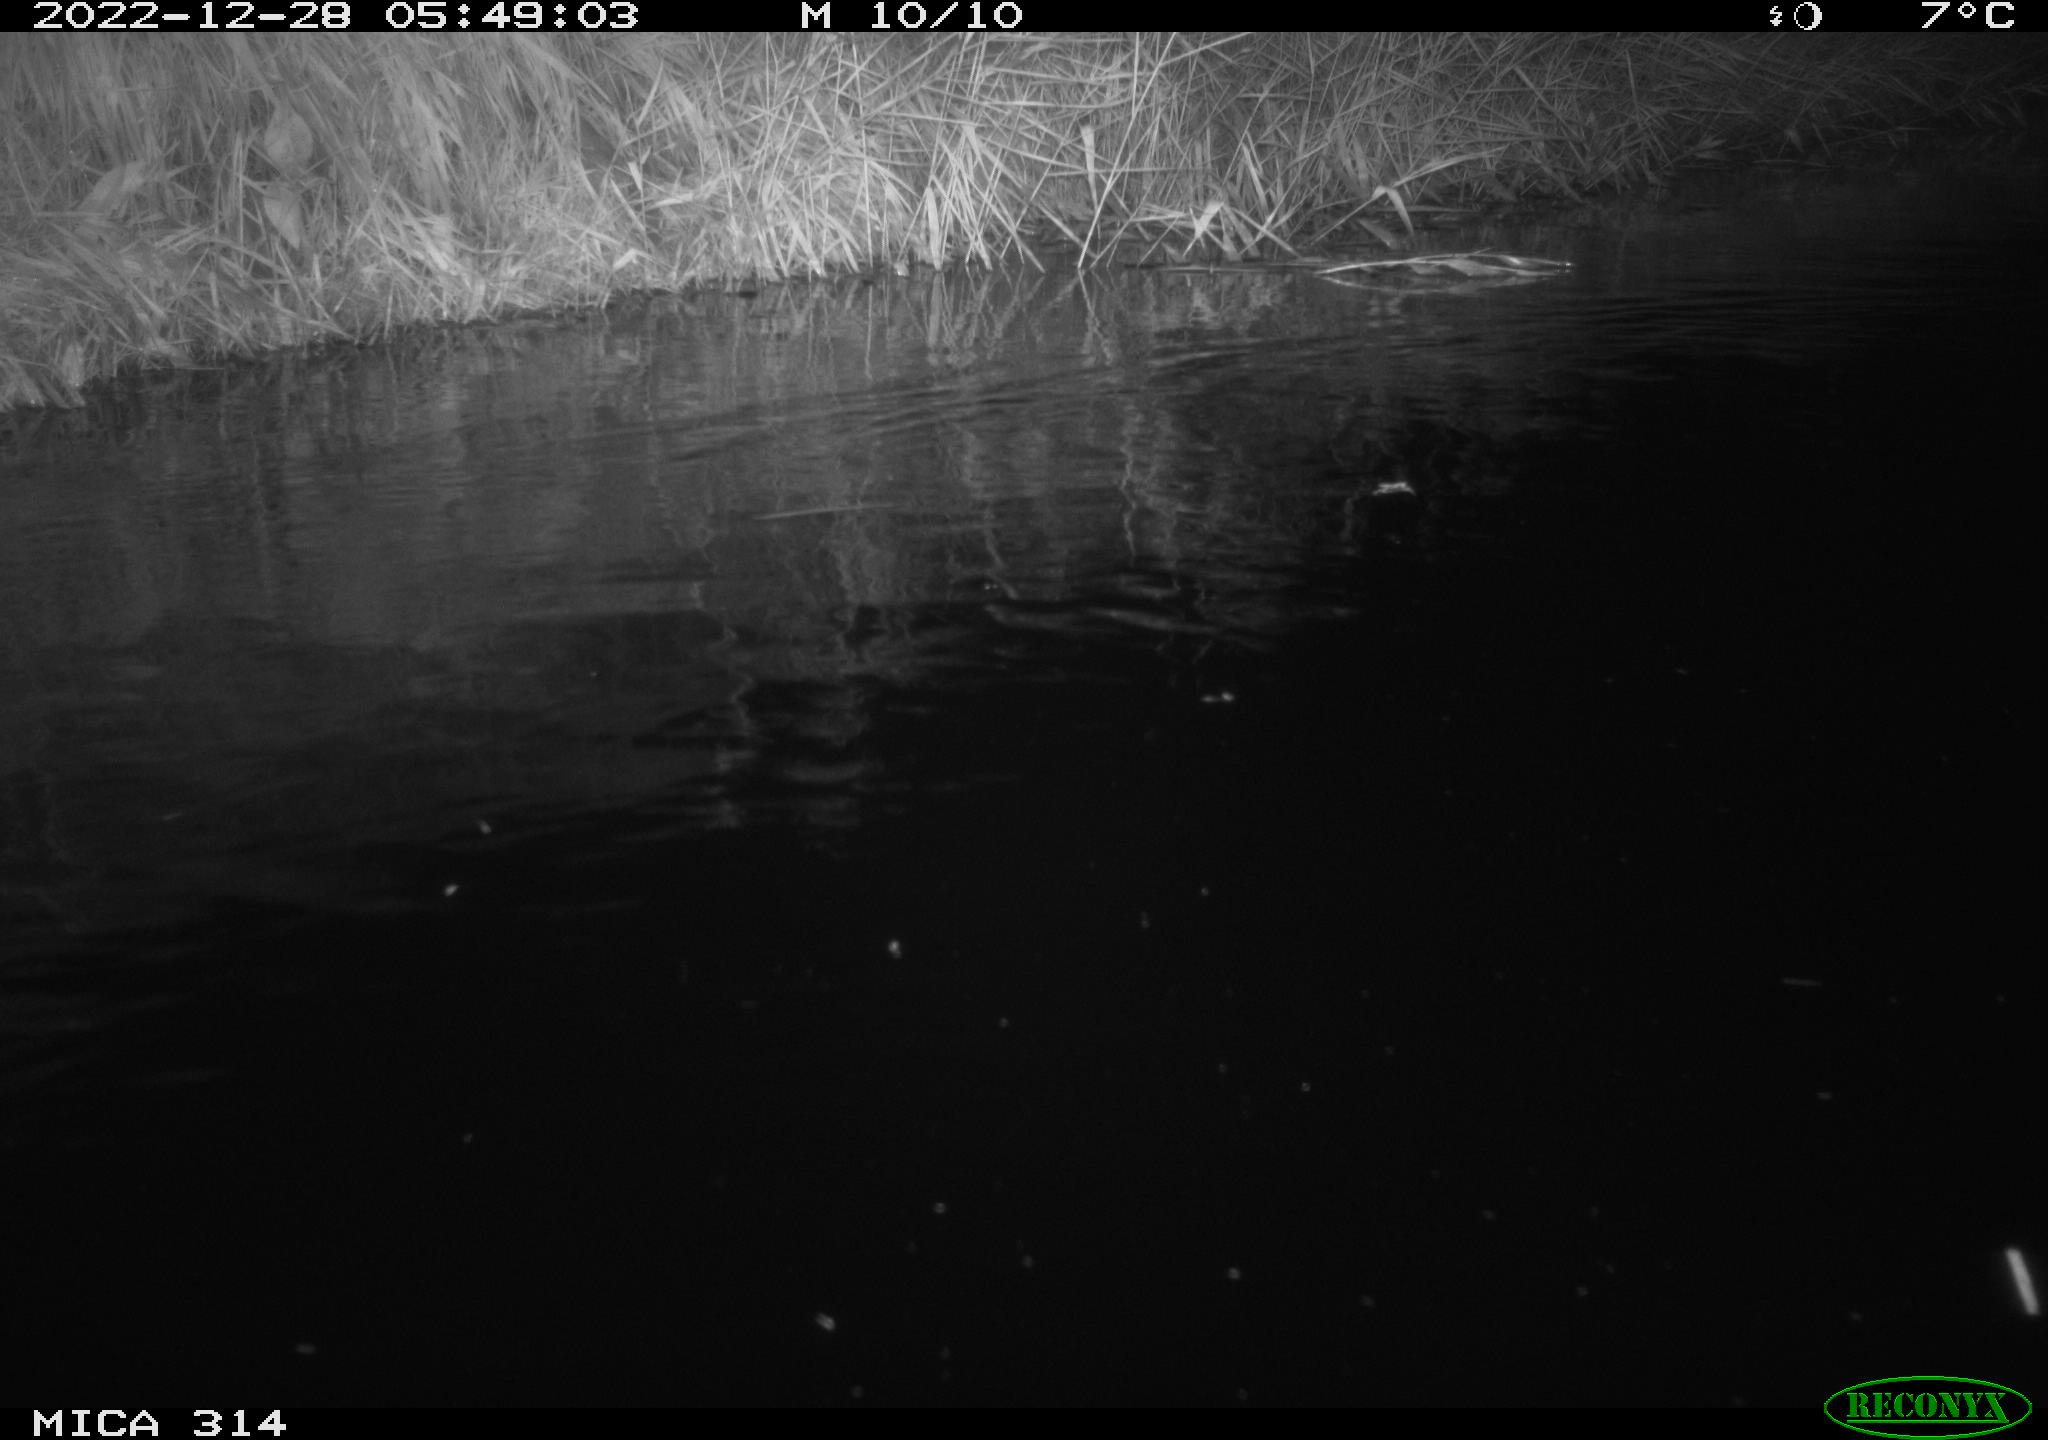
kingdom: Animalia
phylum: Chordata
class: Mammalia
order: Rodentia
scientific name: Rodentia
